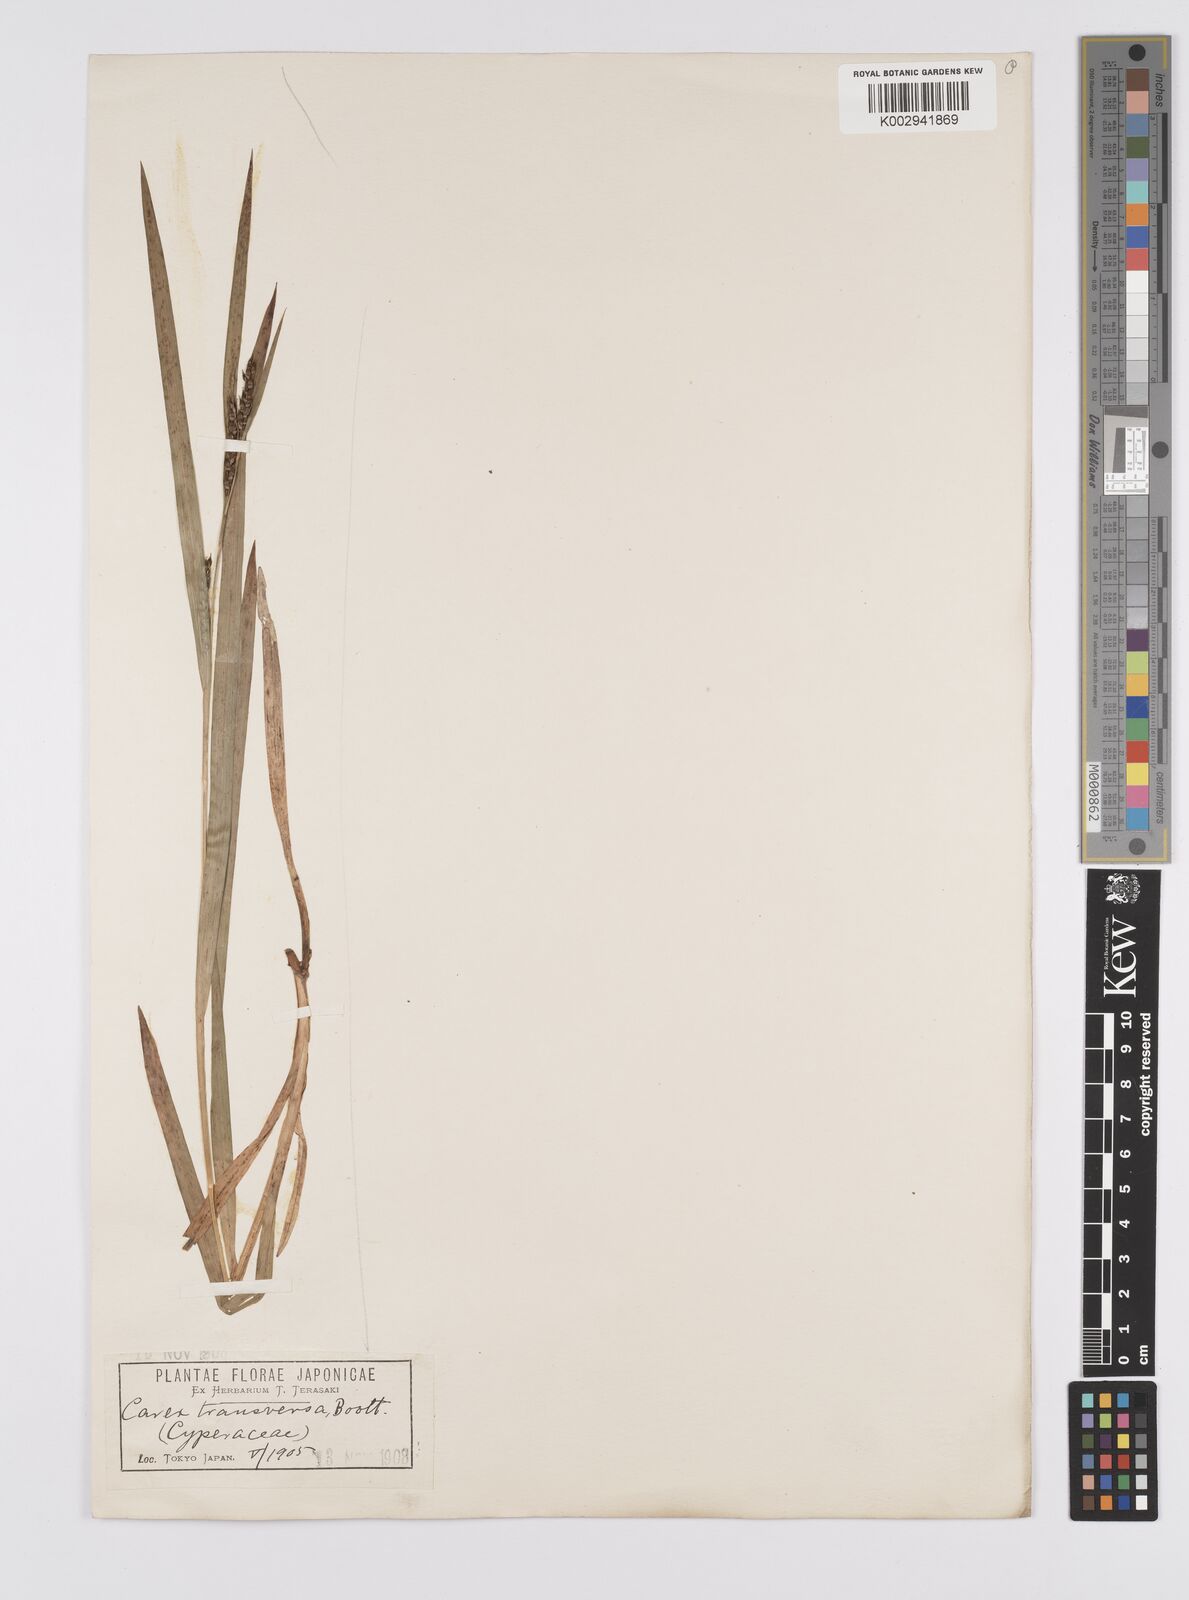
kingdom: Plantae
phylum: Tracheophyta
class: Liliopsida
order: Poales
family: Cyperaceae
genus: Carex
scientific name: Carex brownii
